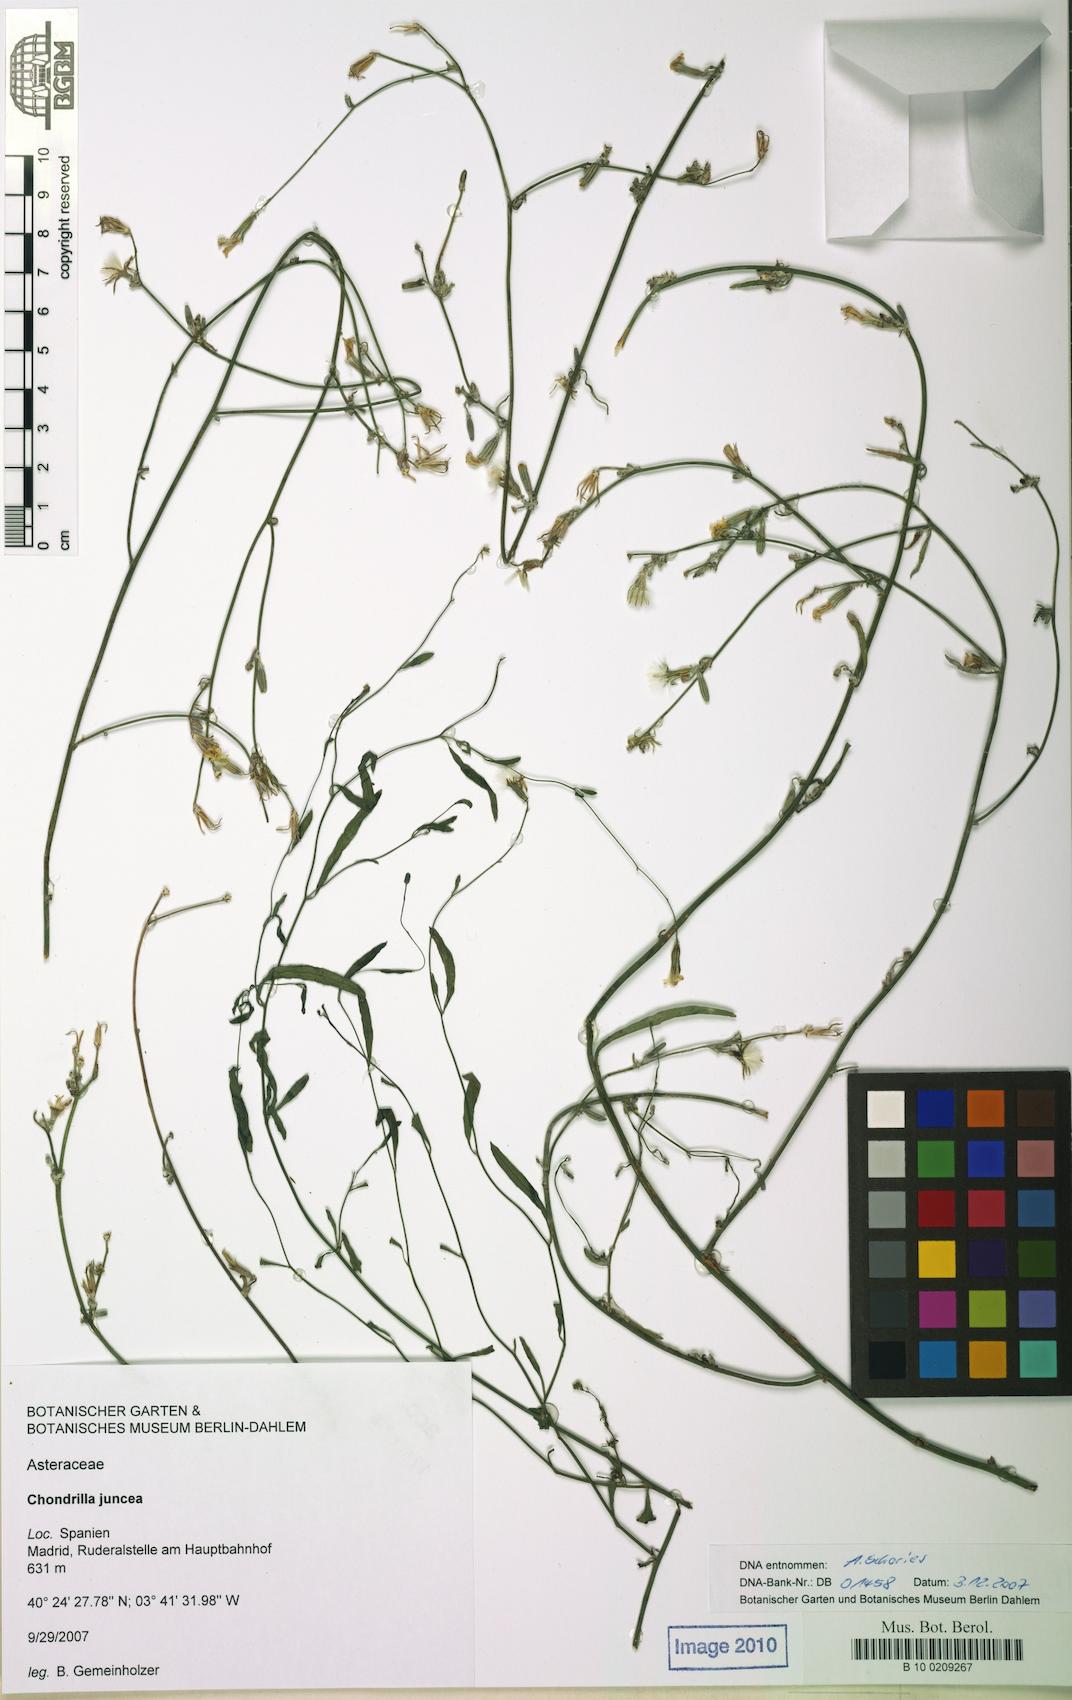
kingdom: Plantae
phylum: Tracheophyta
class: Magnoliopsida
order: Asterales
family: Asteraceae
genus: Chondrilla
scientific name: Chondrilla juncea
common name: Skeleton weed
